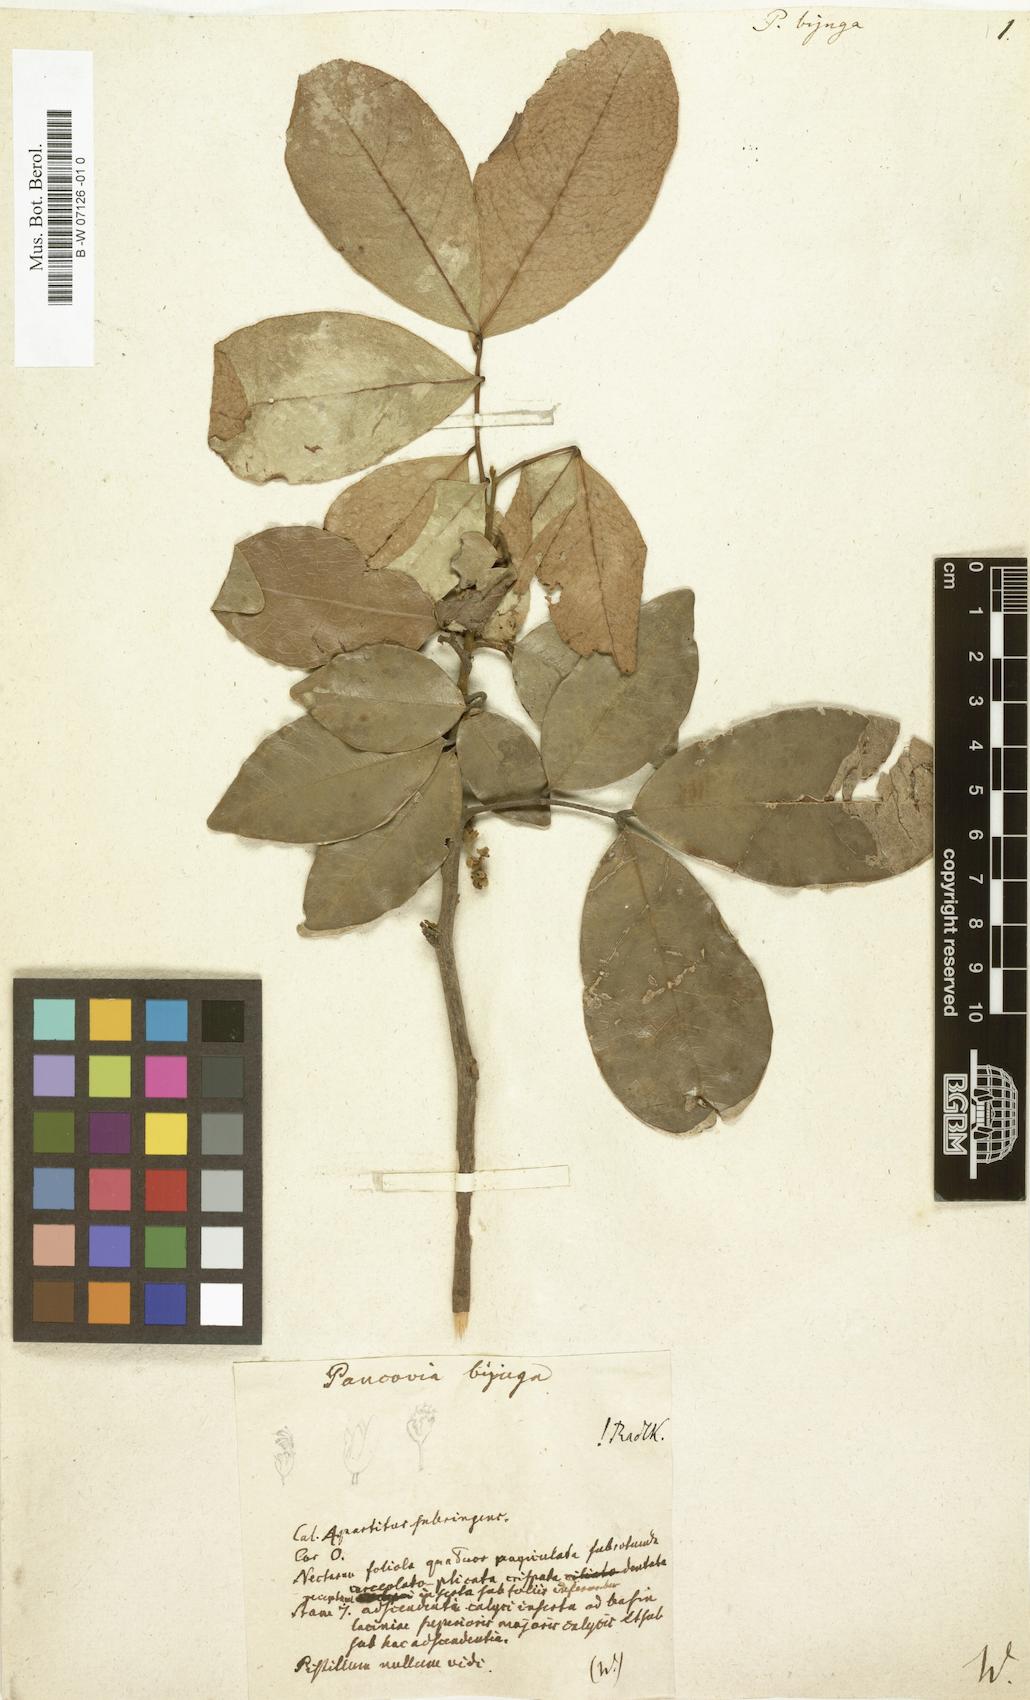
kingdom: Plantae
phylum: Tracheophyta
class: Magnoliopsida
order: Sapindales
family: Sapindaceae
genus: Pancovia
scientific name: Pancovia bijuga
